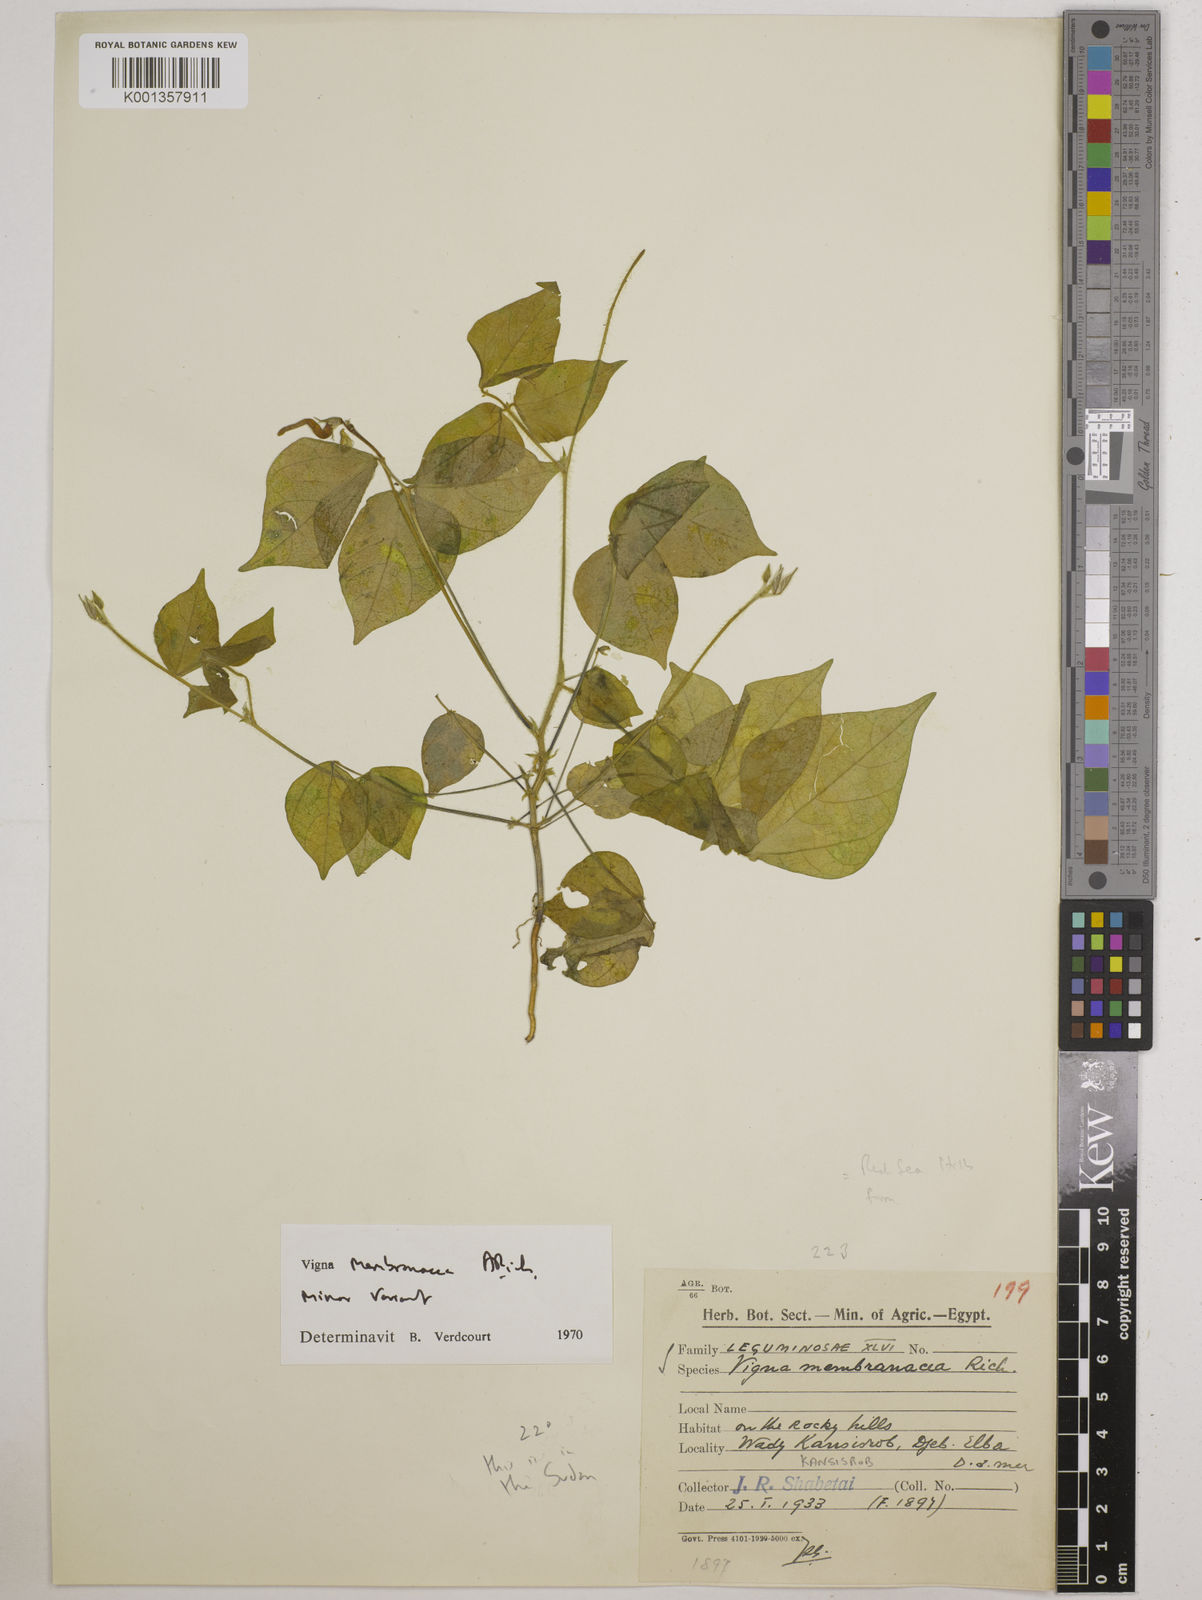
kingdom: Plantae
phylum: Tracheophyta
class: Magnoliopsida
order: Fabales
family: Fabaceae
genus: Vigna
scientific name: Vigna
